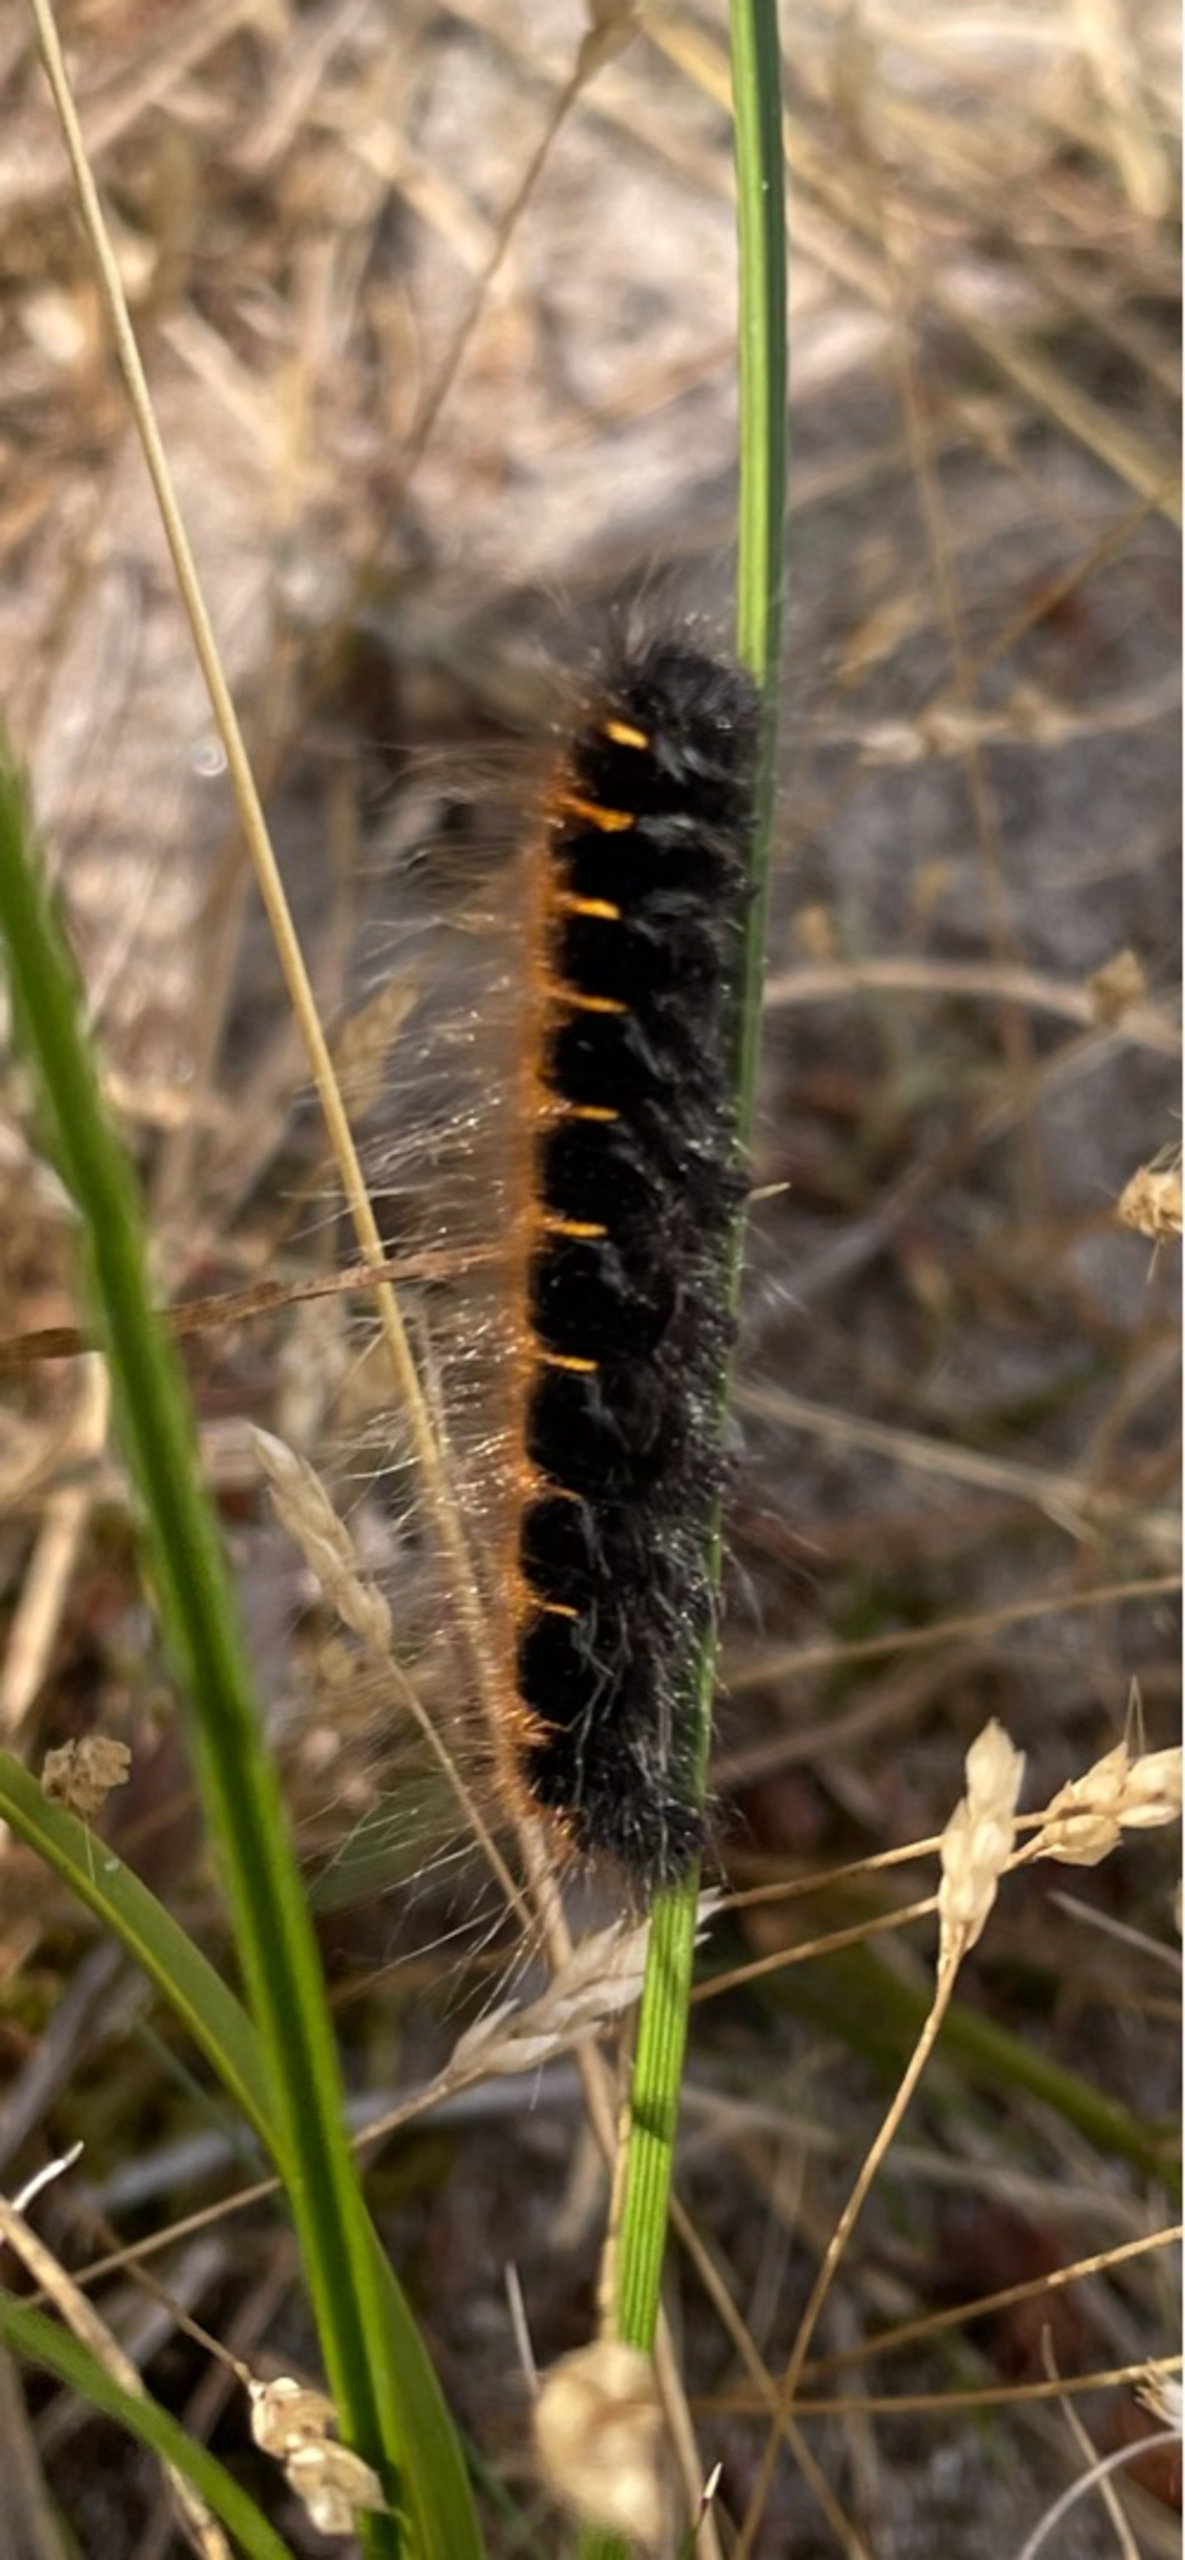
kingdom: Animalia
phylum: Arthropoda
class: Insecta
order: Lepidoptera
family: Lasiocampidae
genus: Macrothylacia
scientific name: Macrothylacia rubi
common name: Brombærspinder
